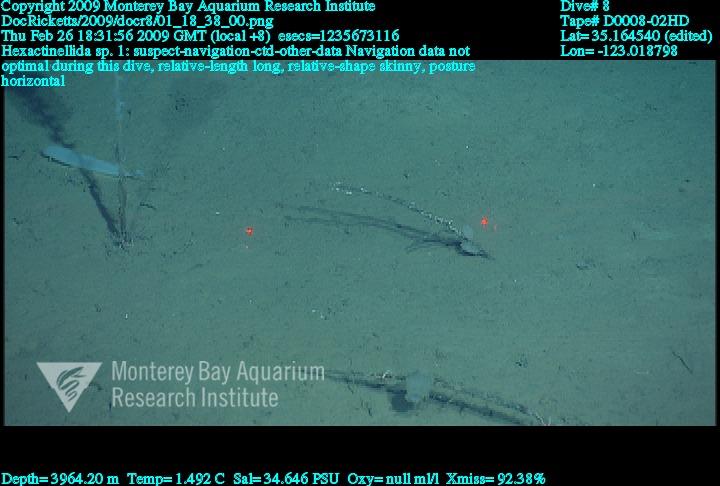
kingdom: Animalia
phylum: Porifera
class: Hexactinellida
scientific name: Hexactinellida
